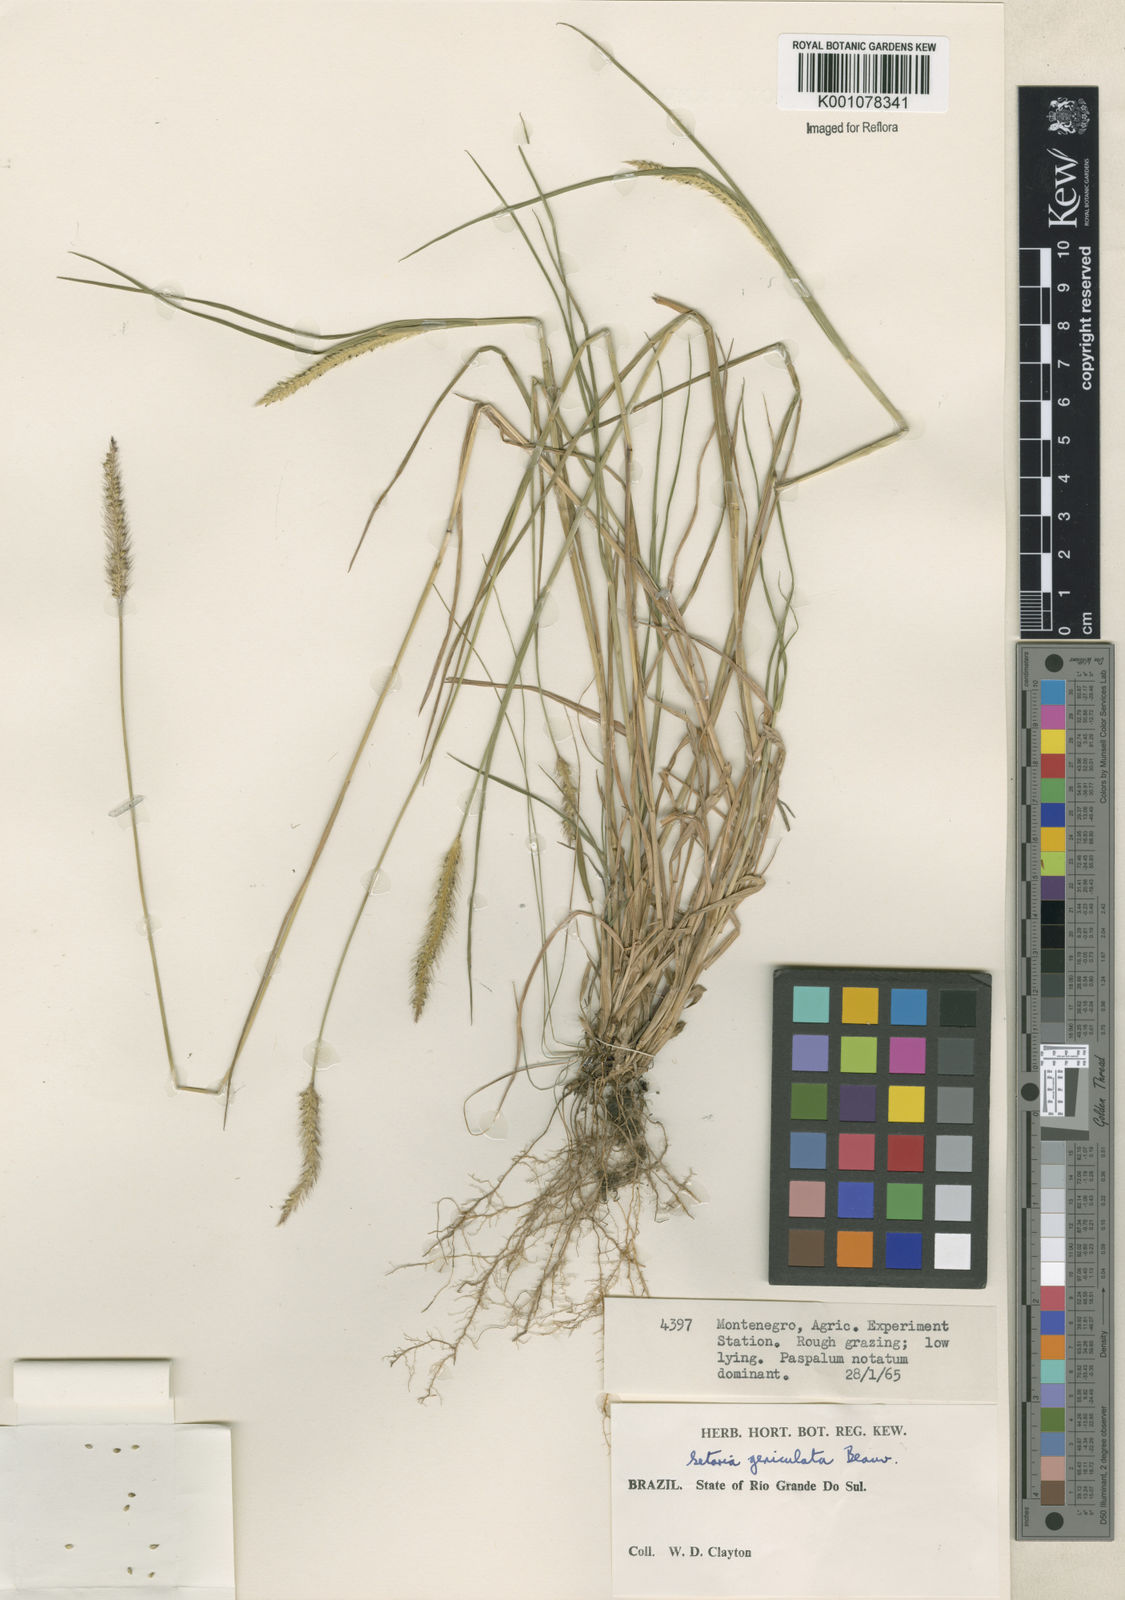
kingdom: Plantae
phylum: Tracheophyta
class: Liliopsida
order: Poales
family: Poaceae
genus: Setaria
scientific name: Setaria parviflora
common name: Knotroot bristle-grass
